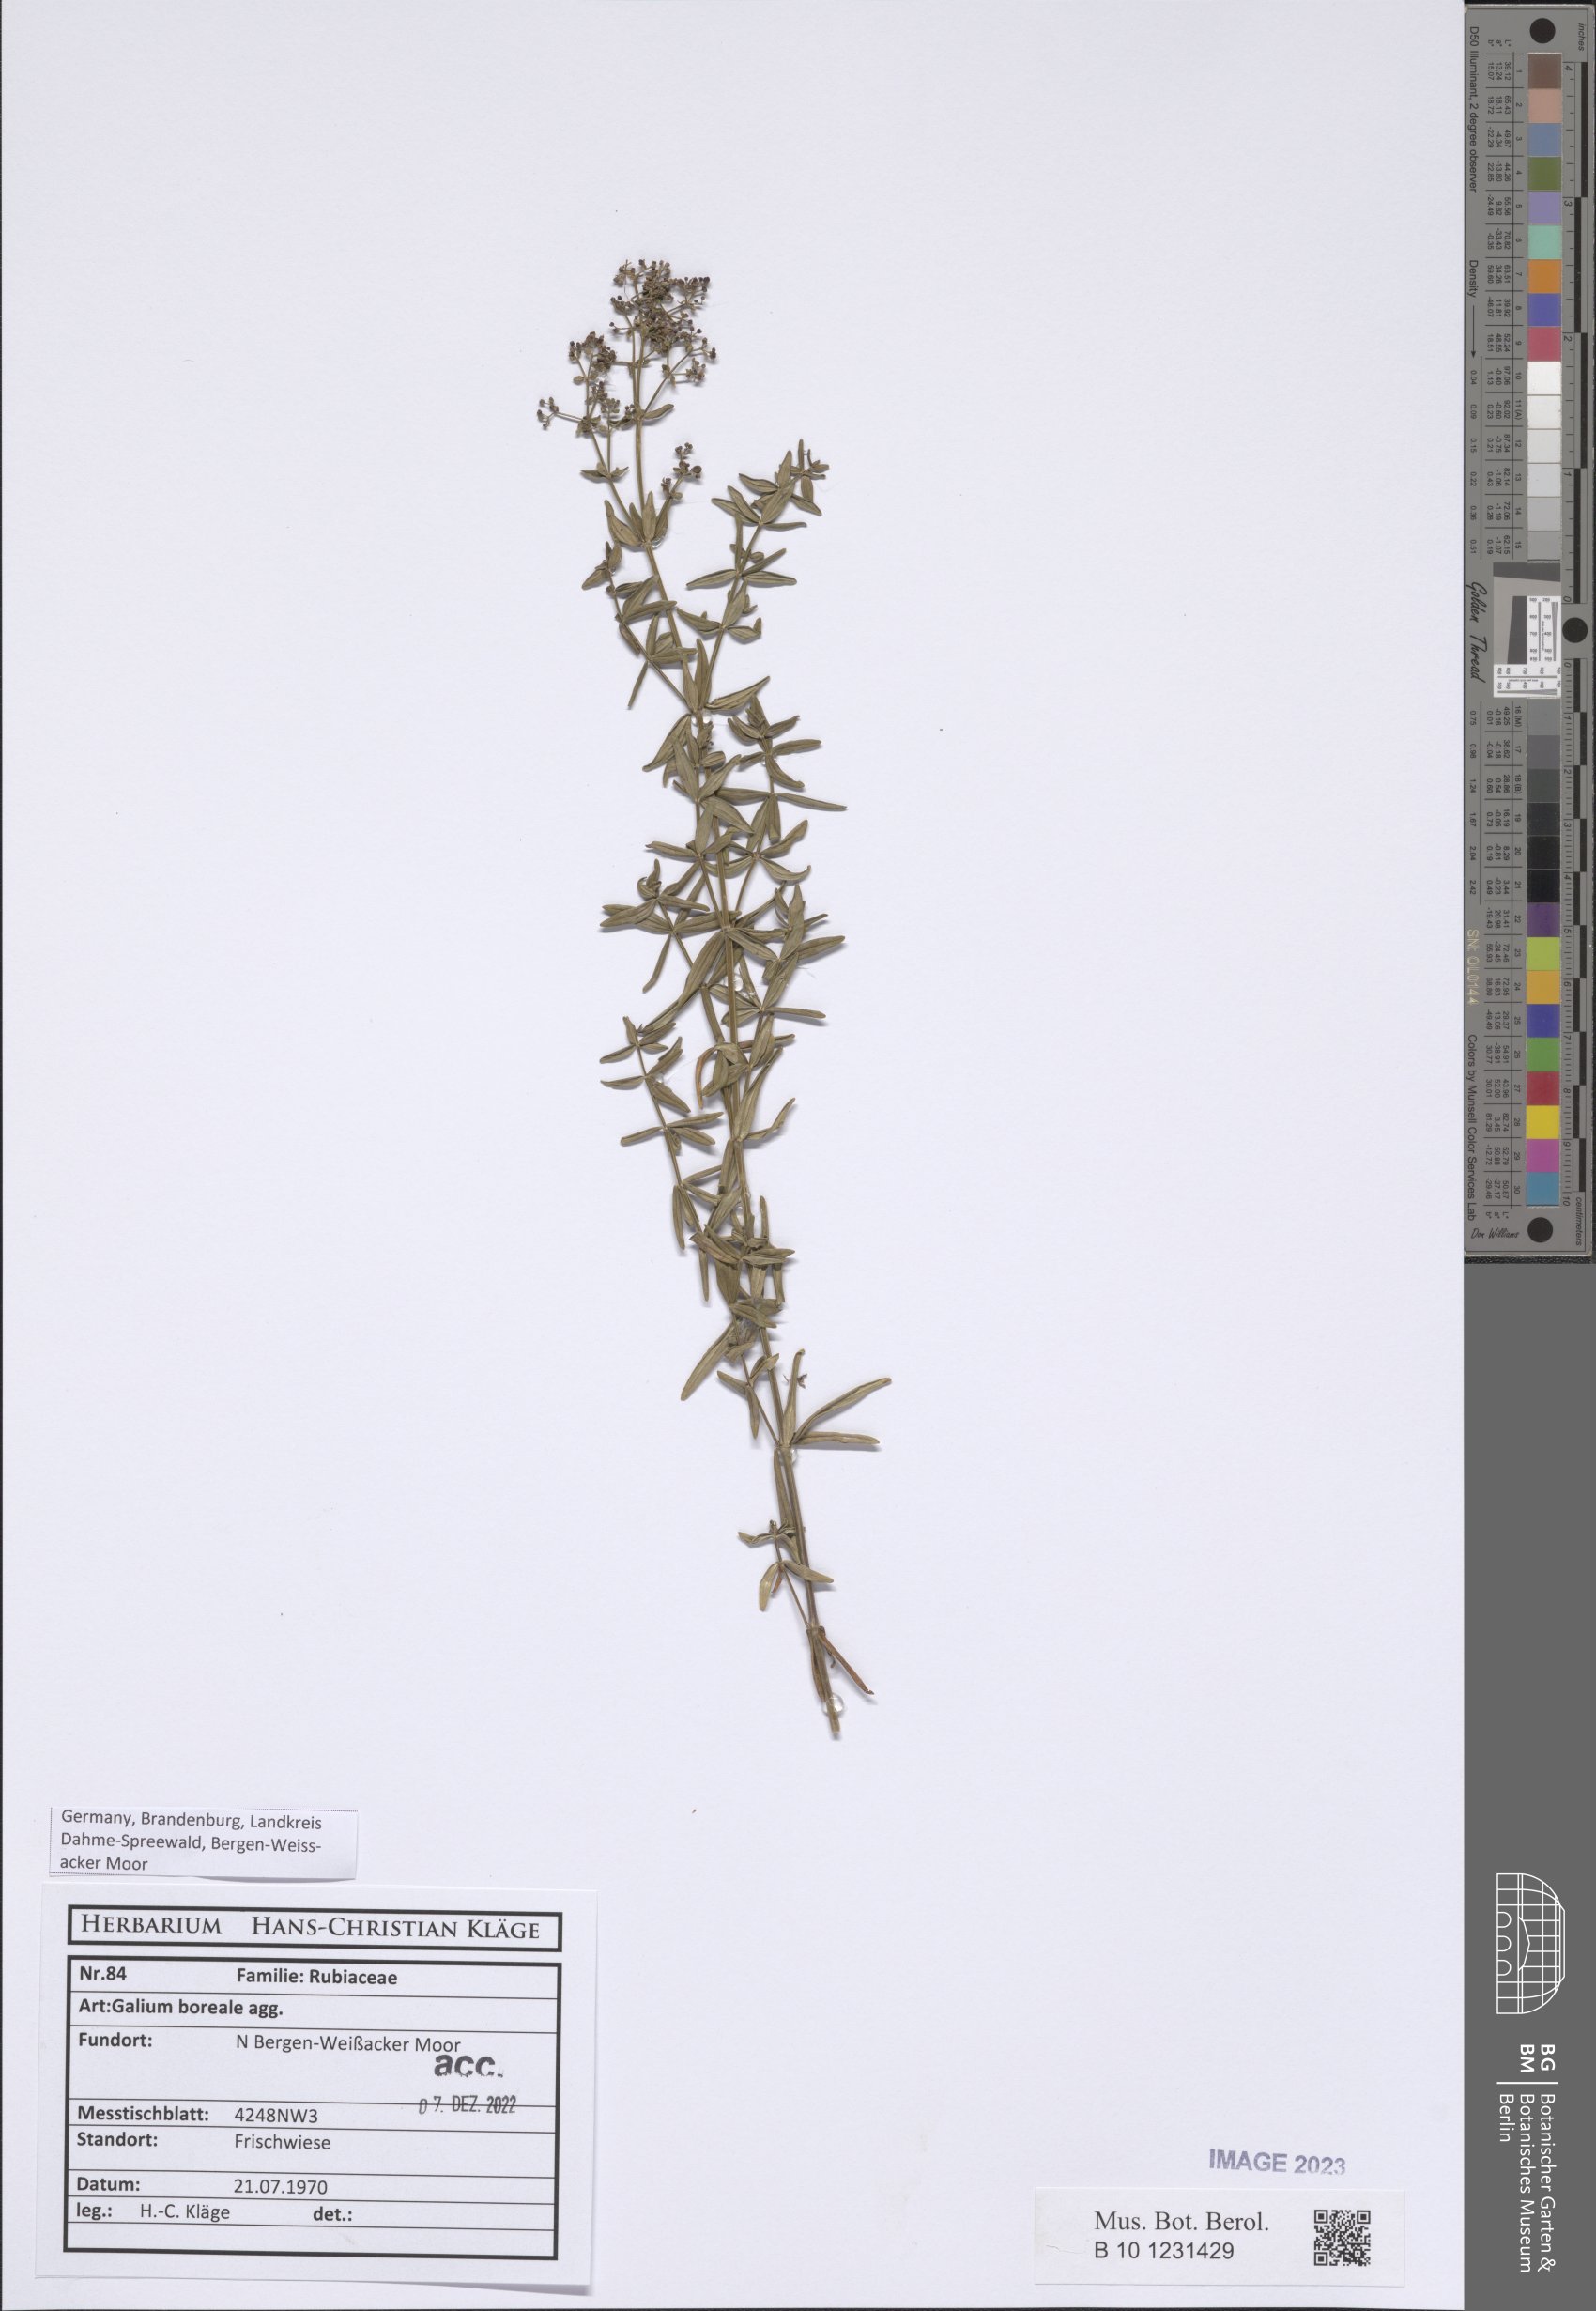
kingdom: Plantae
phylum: Tracheophyta
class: Magnoliopsida
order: Gentianales
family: Rubiaceae
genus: Galium
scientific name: Galium boreale
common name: Northern bedstraw
